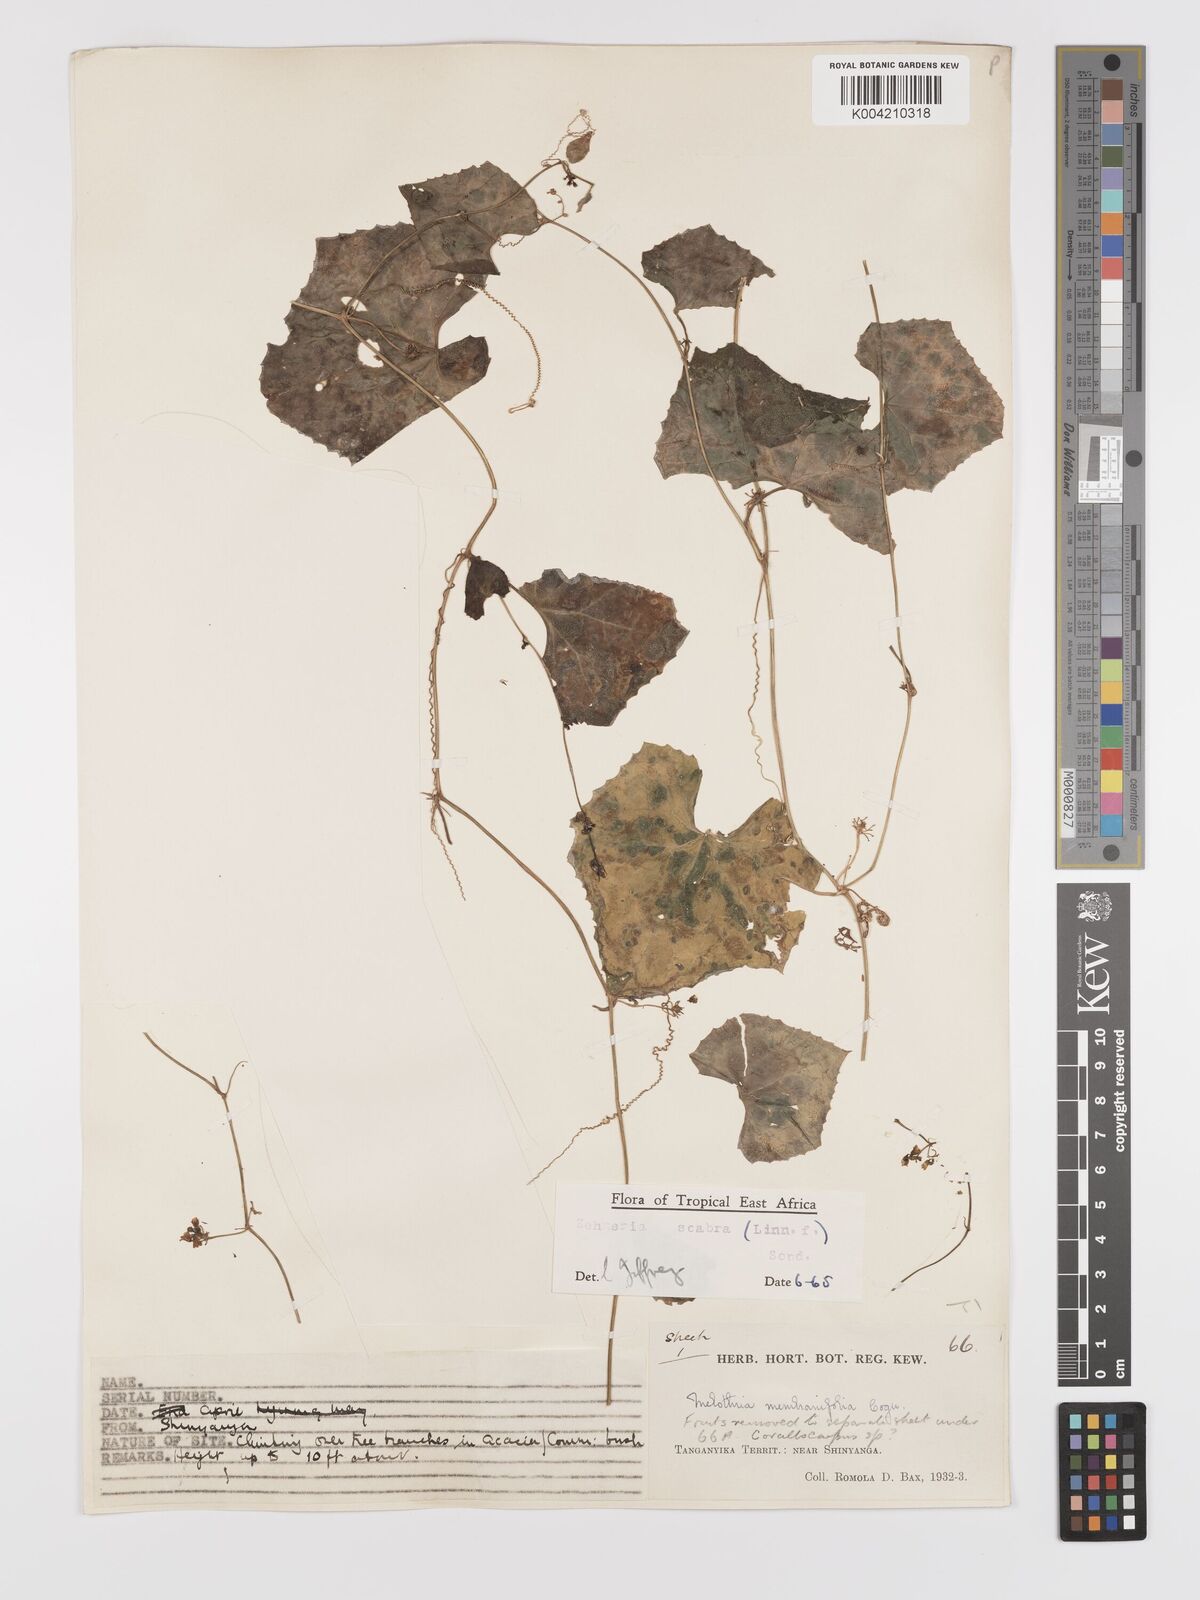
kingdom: Plantae
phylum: Tracheophyta
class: Magnoliopsida
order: Cucurbitales
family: Cucurbitaceae
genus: Zehneria
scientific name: Zehneria scabra
